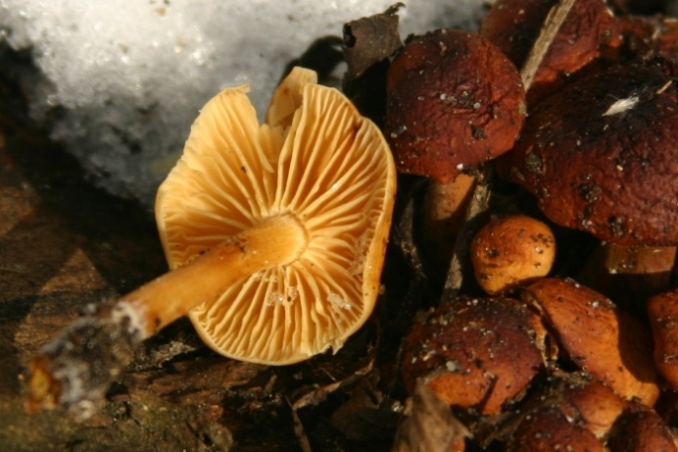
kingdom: Fungi
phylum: Basidiomycota
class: Agaricomycetes
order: Agaricales
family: Physalacriaceae
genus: Flammulina
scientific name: Flammulina elastica
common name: pile-fløjlsfod
